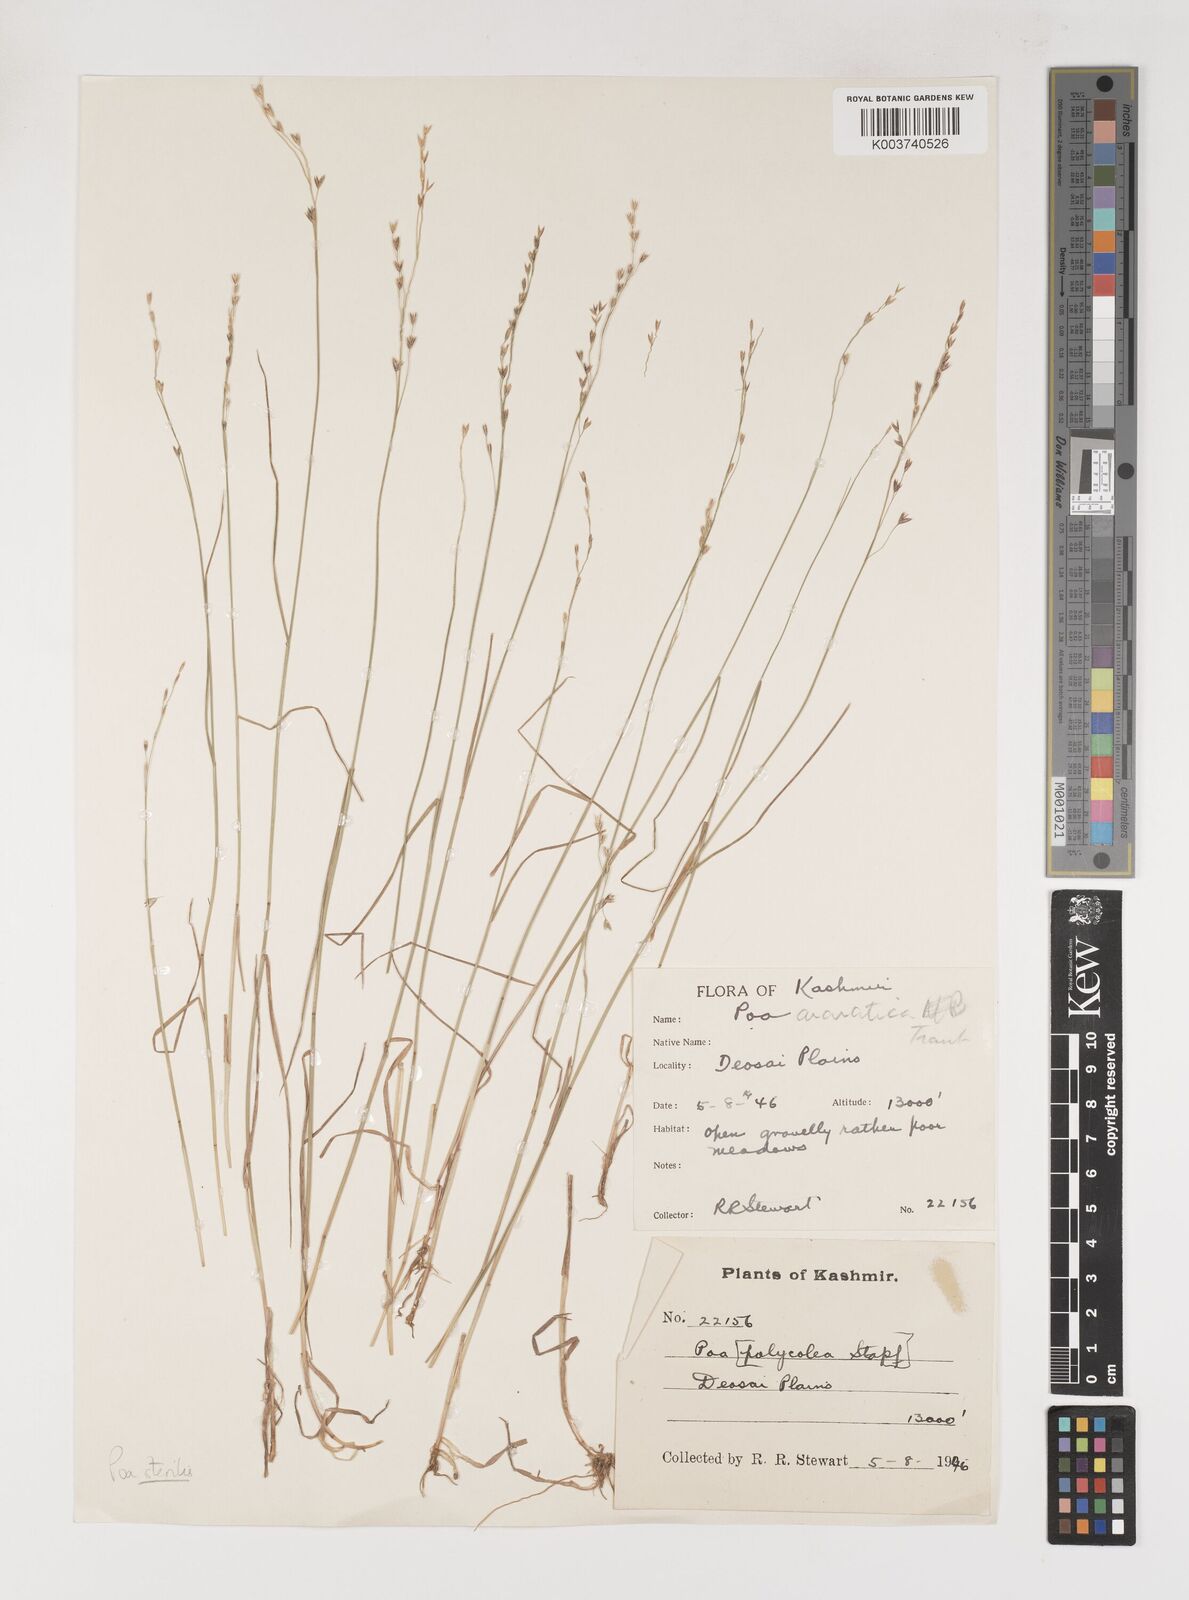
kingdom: Plantae
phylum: Tracheophyta
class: Liliopsida
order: Poales
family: Poaceae
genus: Poa
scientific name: Poa sterilis
